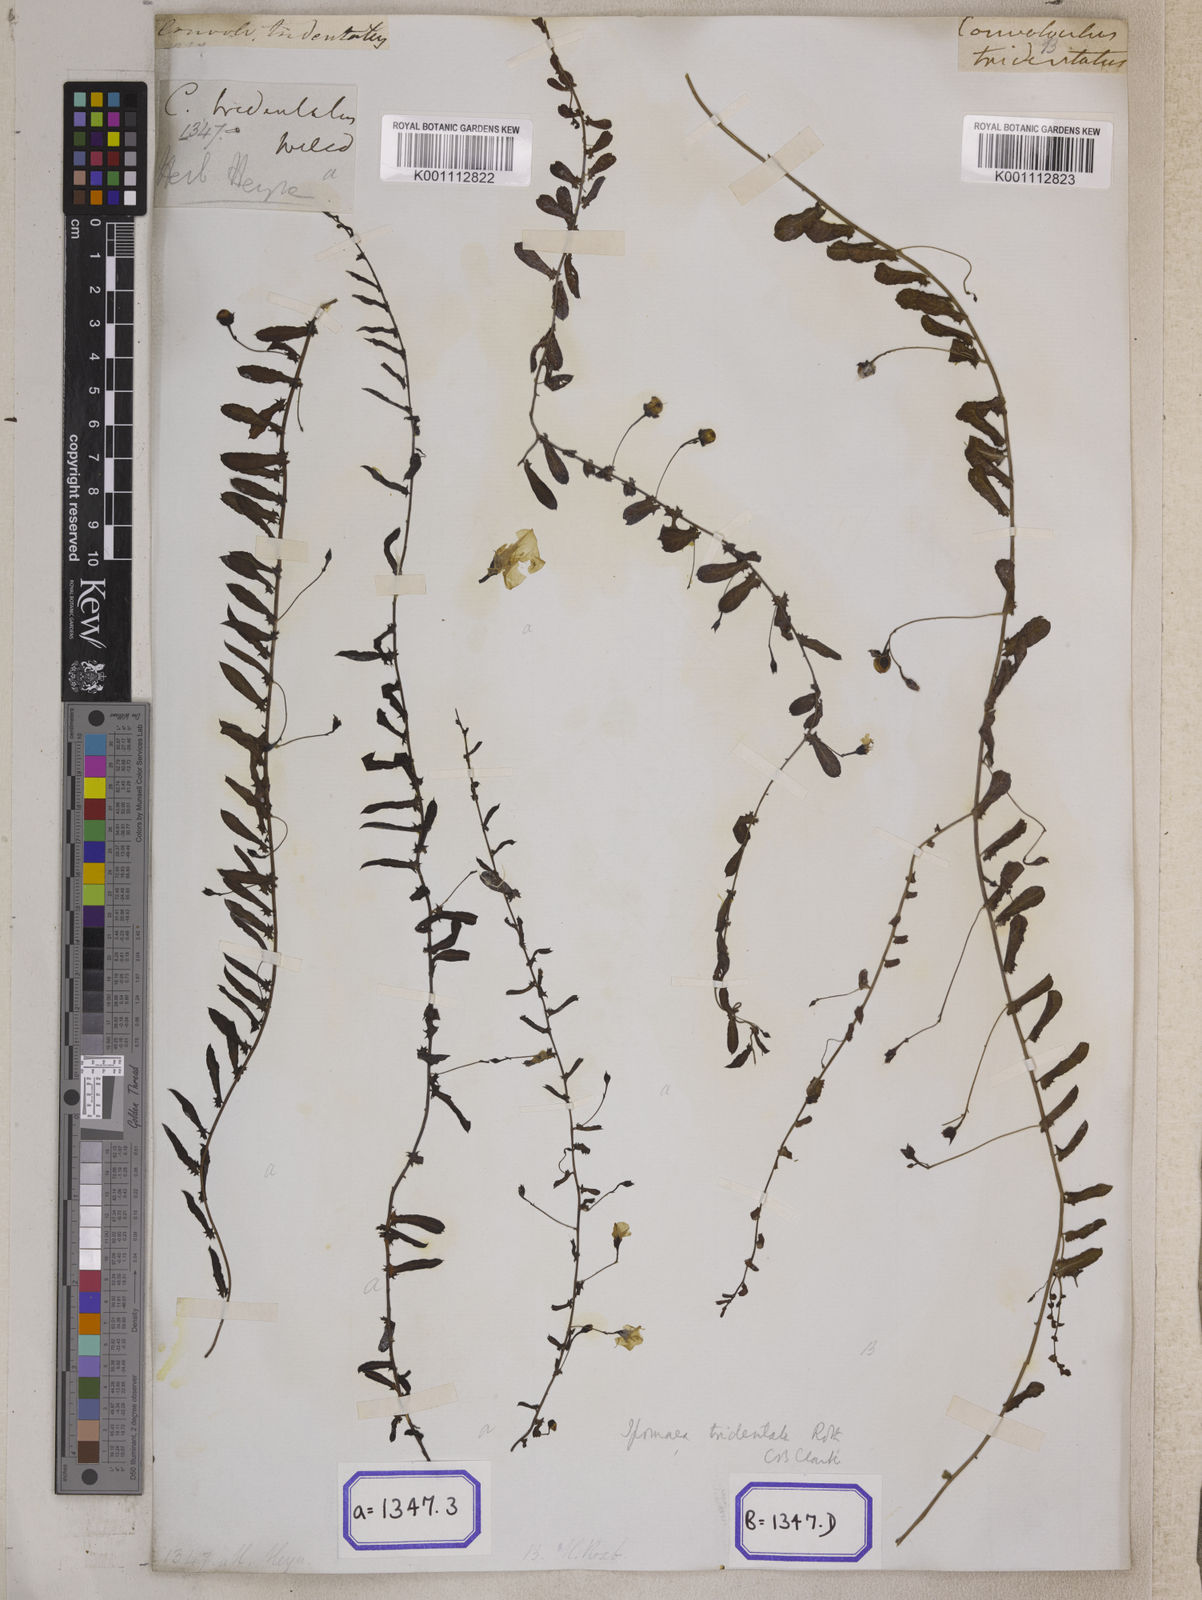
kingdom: Plantae
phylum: Tracheophyta
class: Magnoliopsida
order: Solanales
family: Convolvulaceae
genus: Xenostegia
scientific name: Xenostegia tridentata
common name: African morningvine
